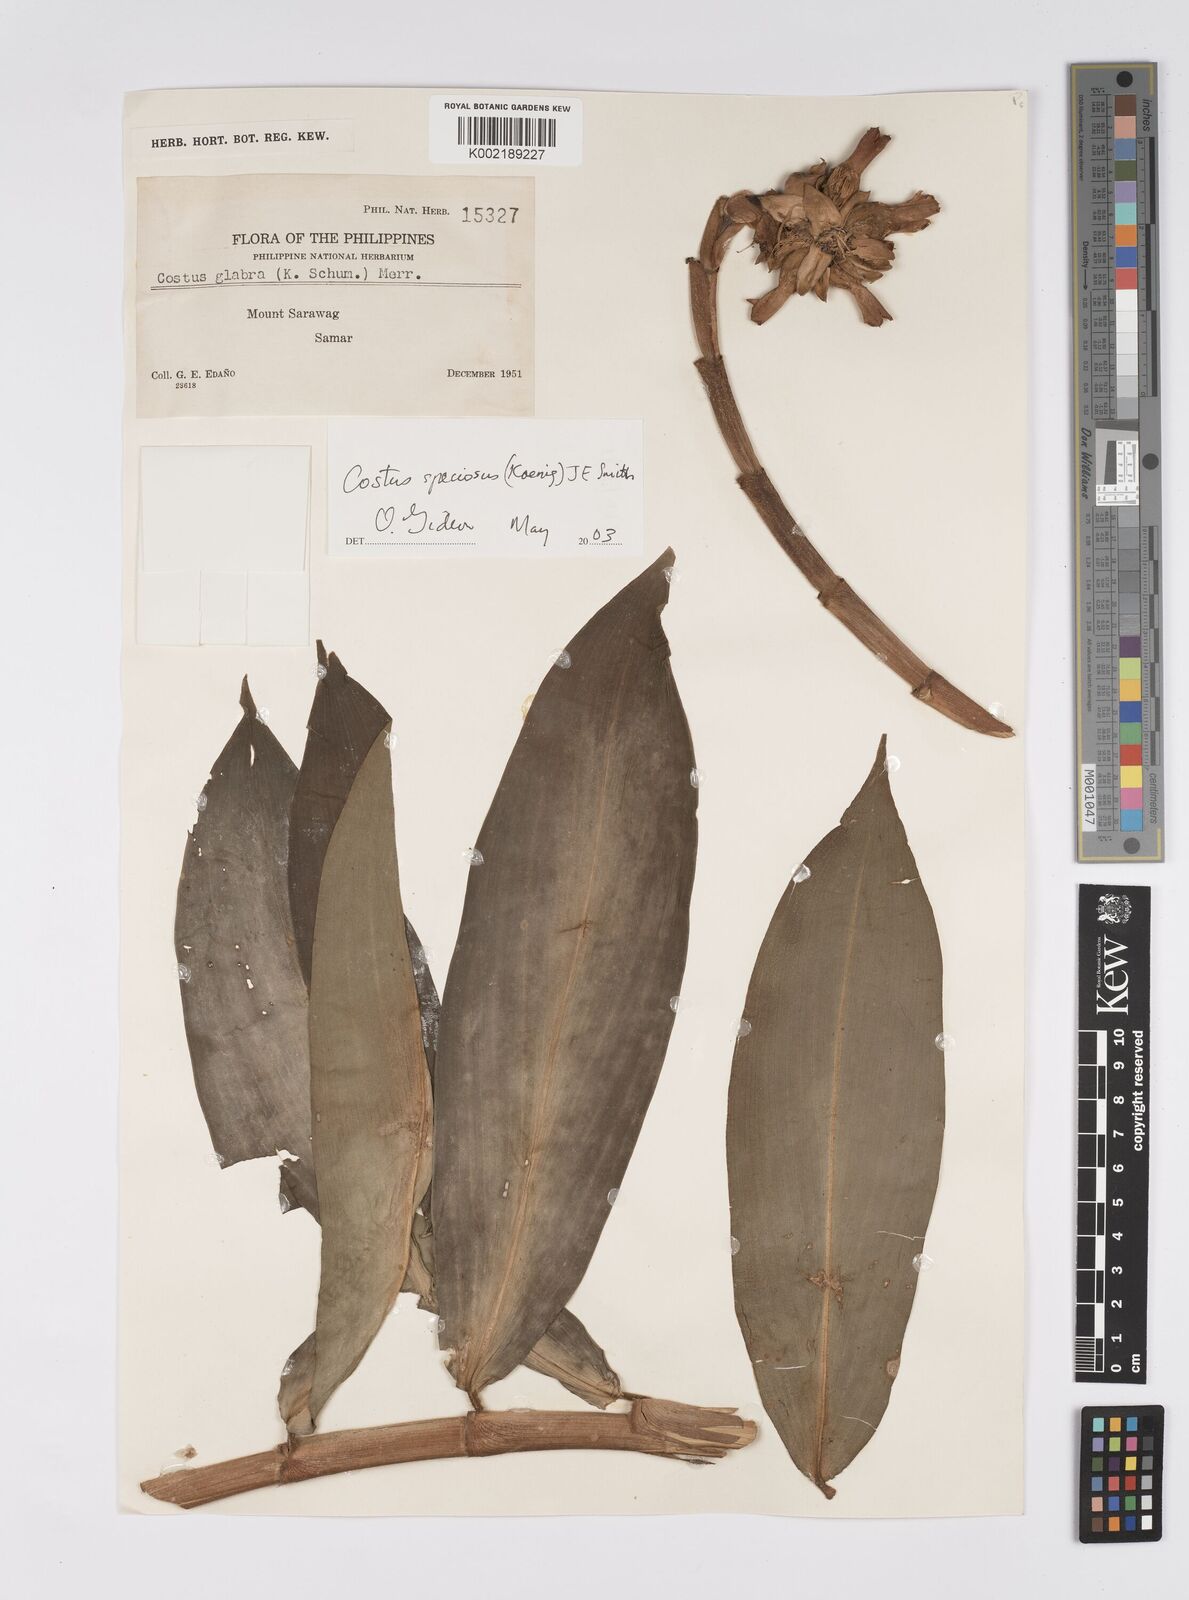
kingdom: Plantae
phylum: Tracheophyta
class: Liliopsida
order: Zingiberales
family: Costaceae
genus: Hellenia
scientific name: Hellenia speciosa
